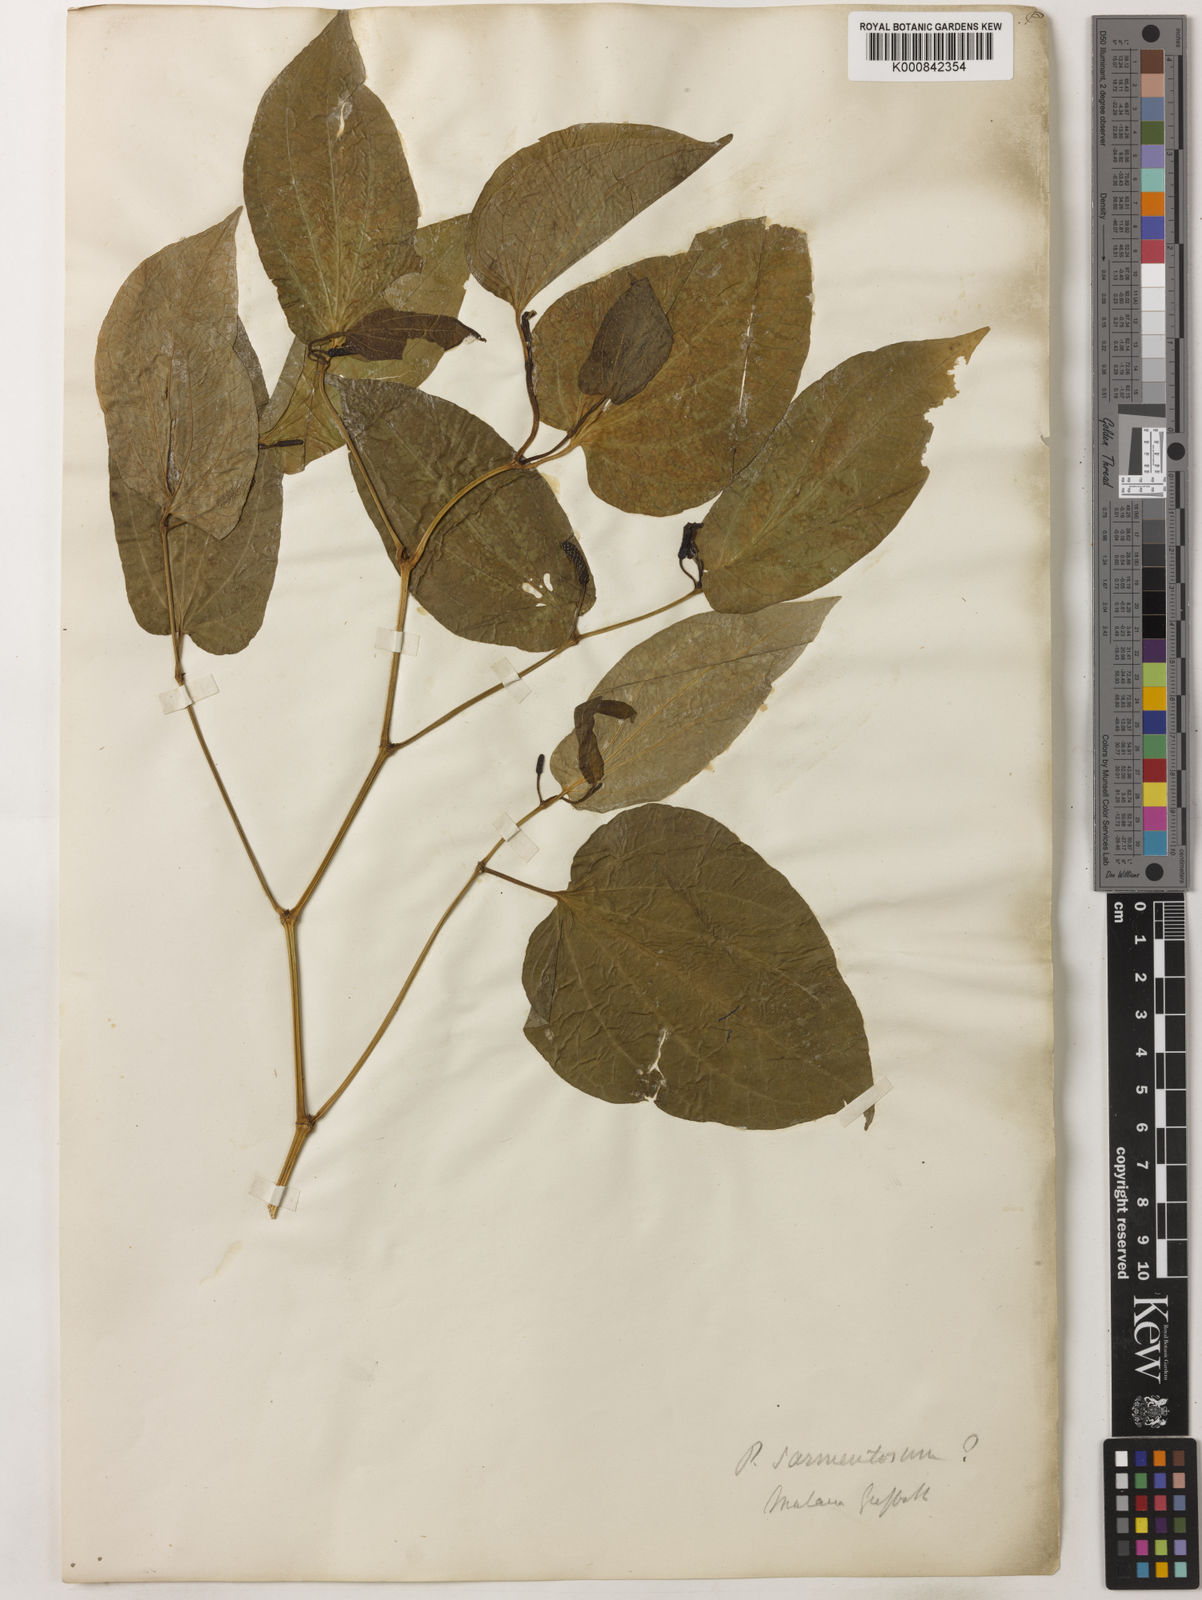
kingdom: Plantae
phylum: Tracheophyta
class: Magnoliopsida
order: Piperales
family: Piperaceae
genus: Piper
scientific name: Piper sarmentosum
